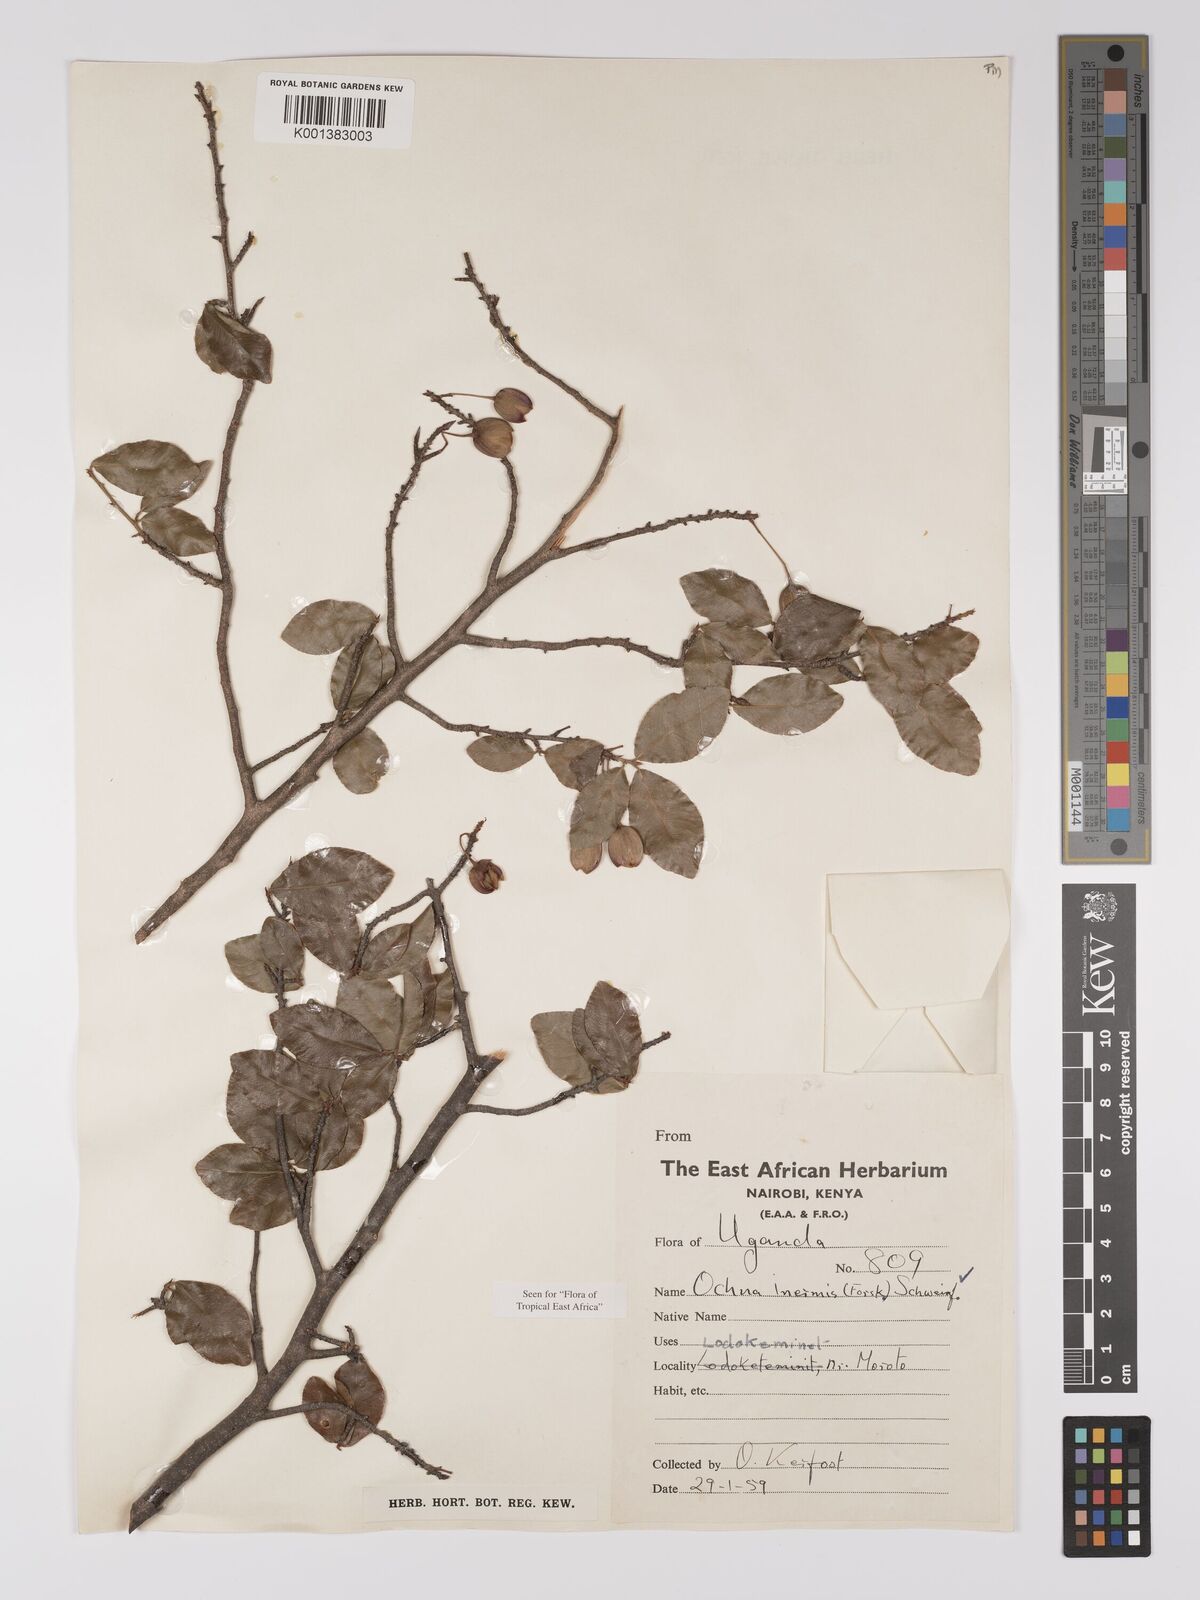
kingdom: Plantae
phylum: Tracheophyta
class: Magnoliopsida
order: Malpighiales
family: Ochnaceae
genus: Ochna
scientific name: Ochna inermis
